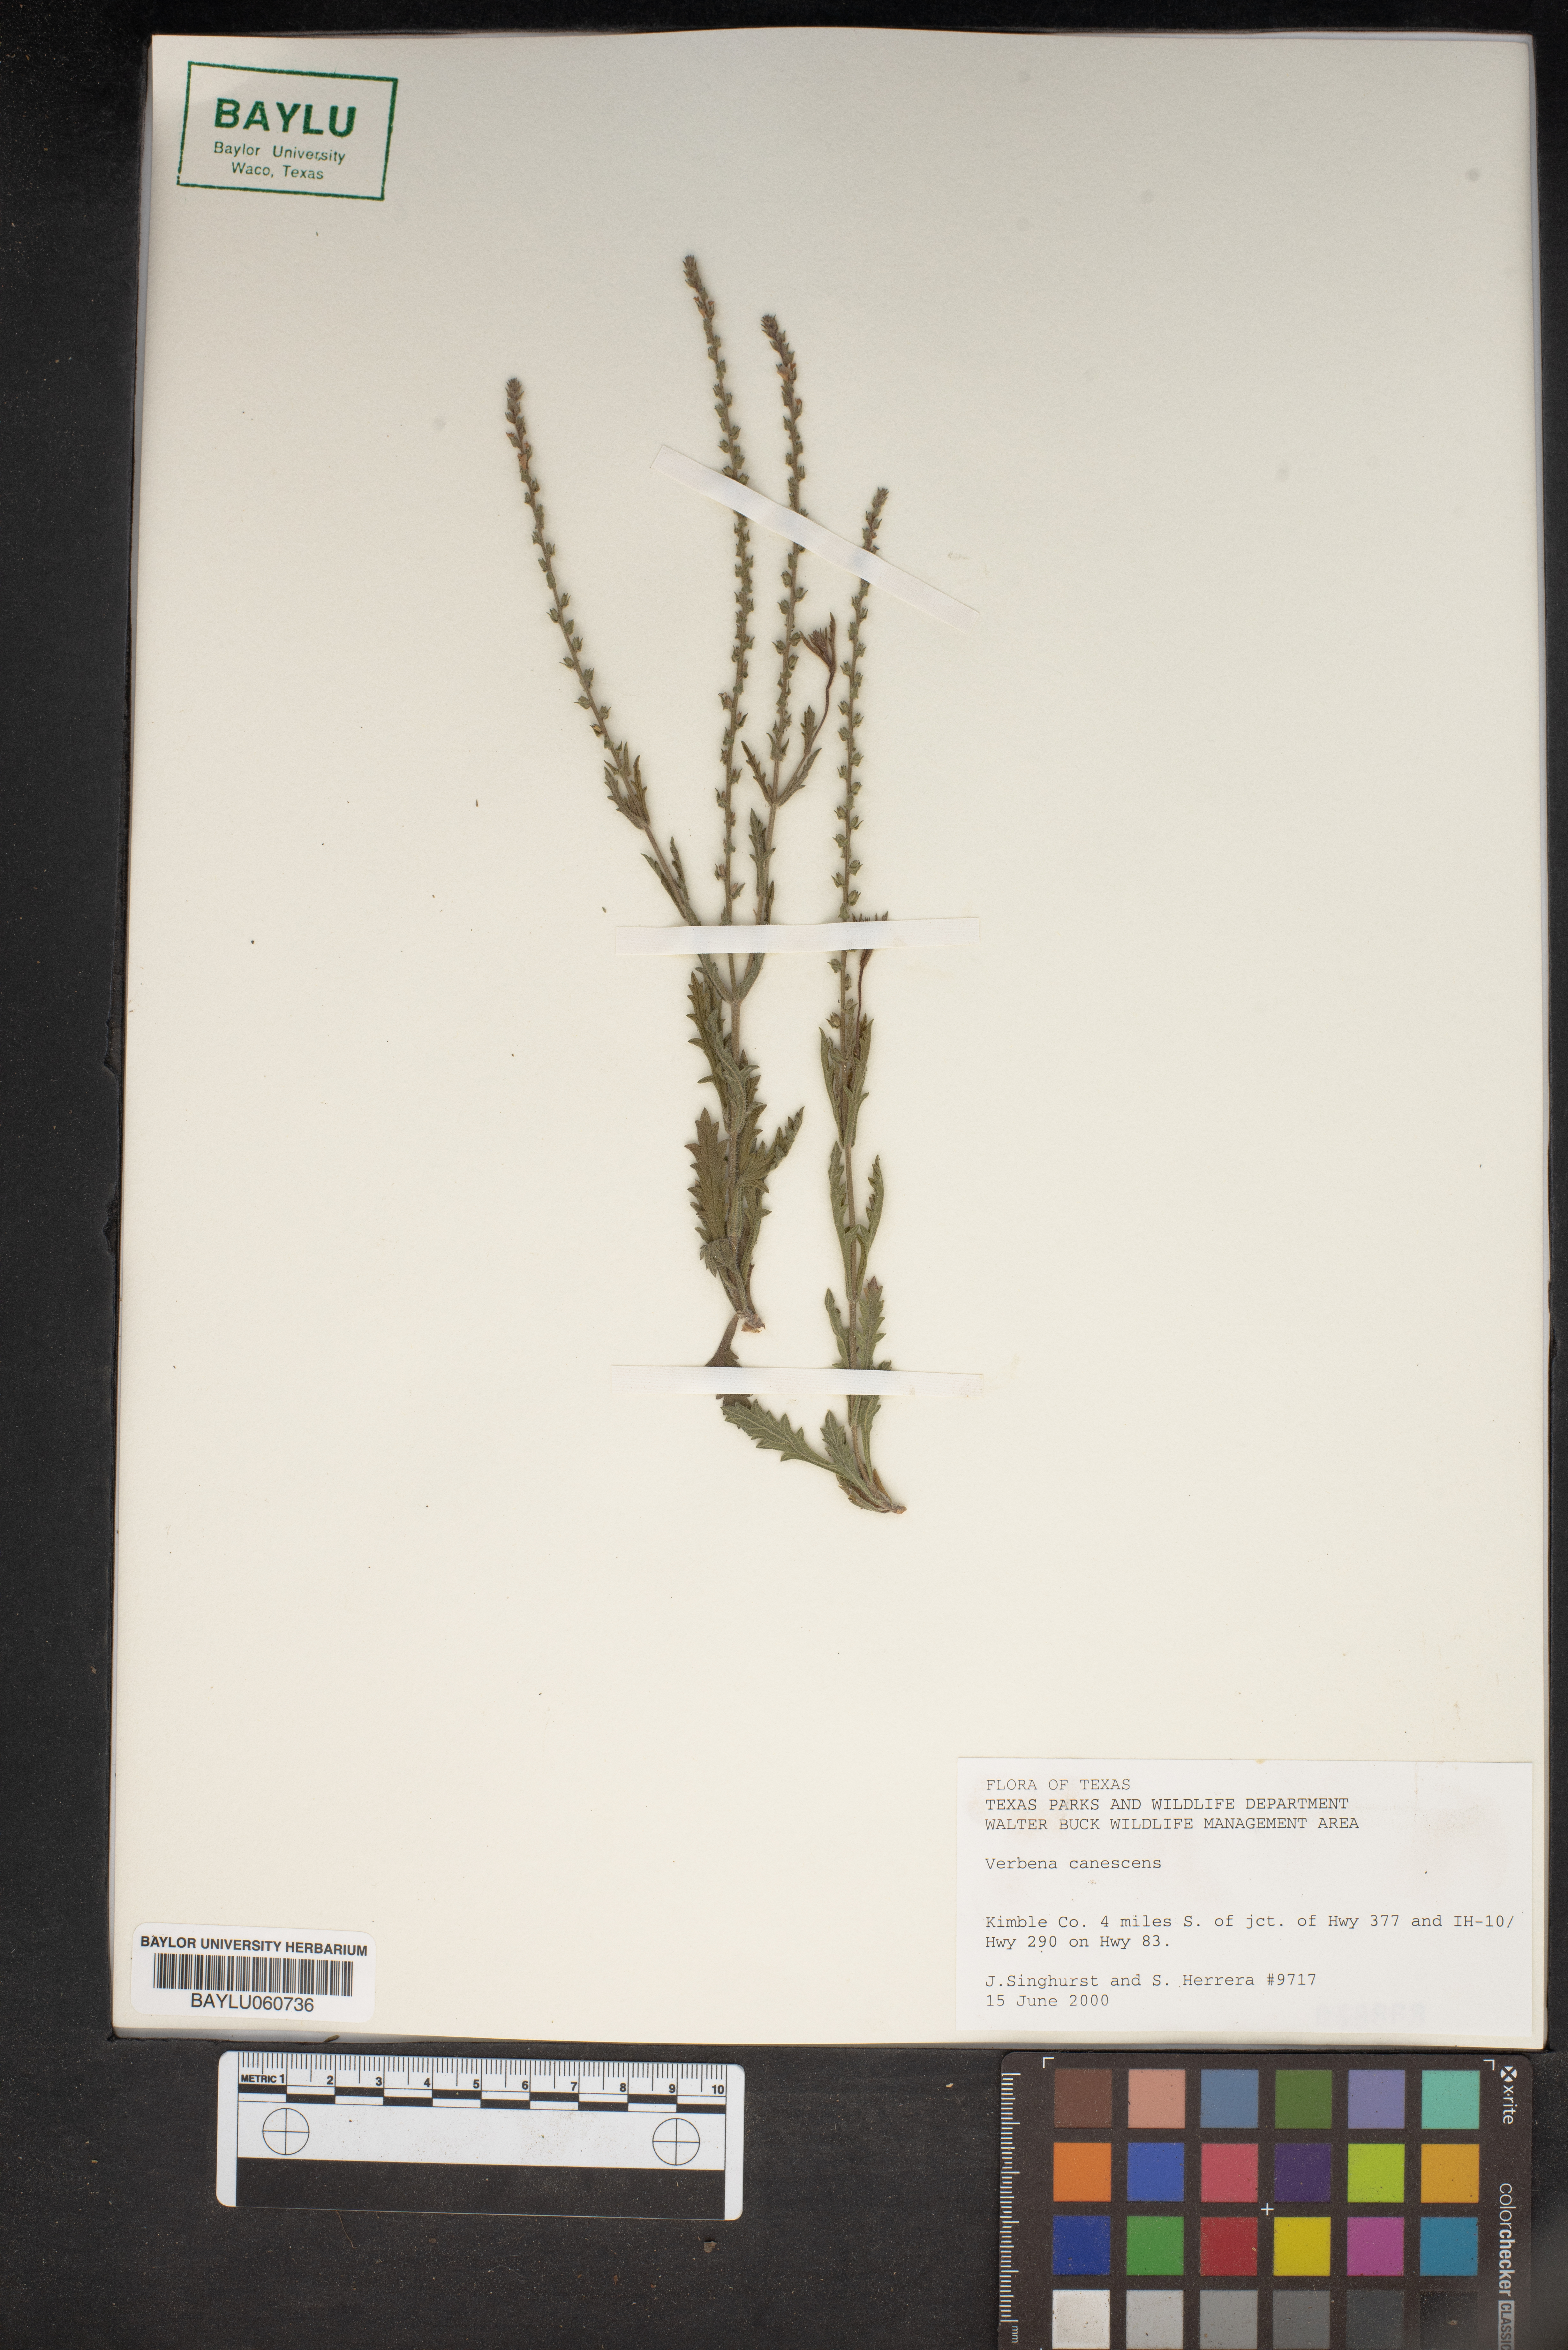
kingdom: Plantae
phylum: Tracheophyta
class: Magnoliopsida
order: Lamiales
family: Verbenaceae
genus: Verbena
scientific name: Verbena canescens
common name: Gray vervain
